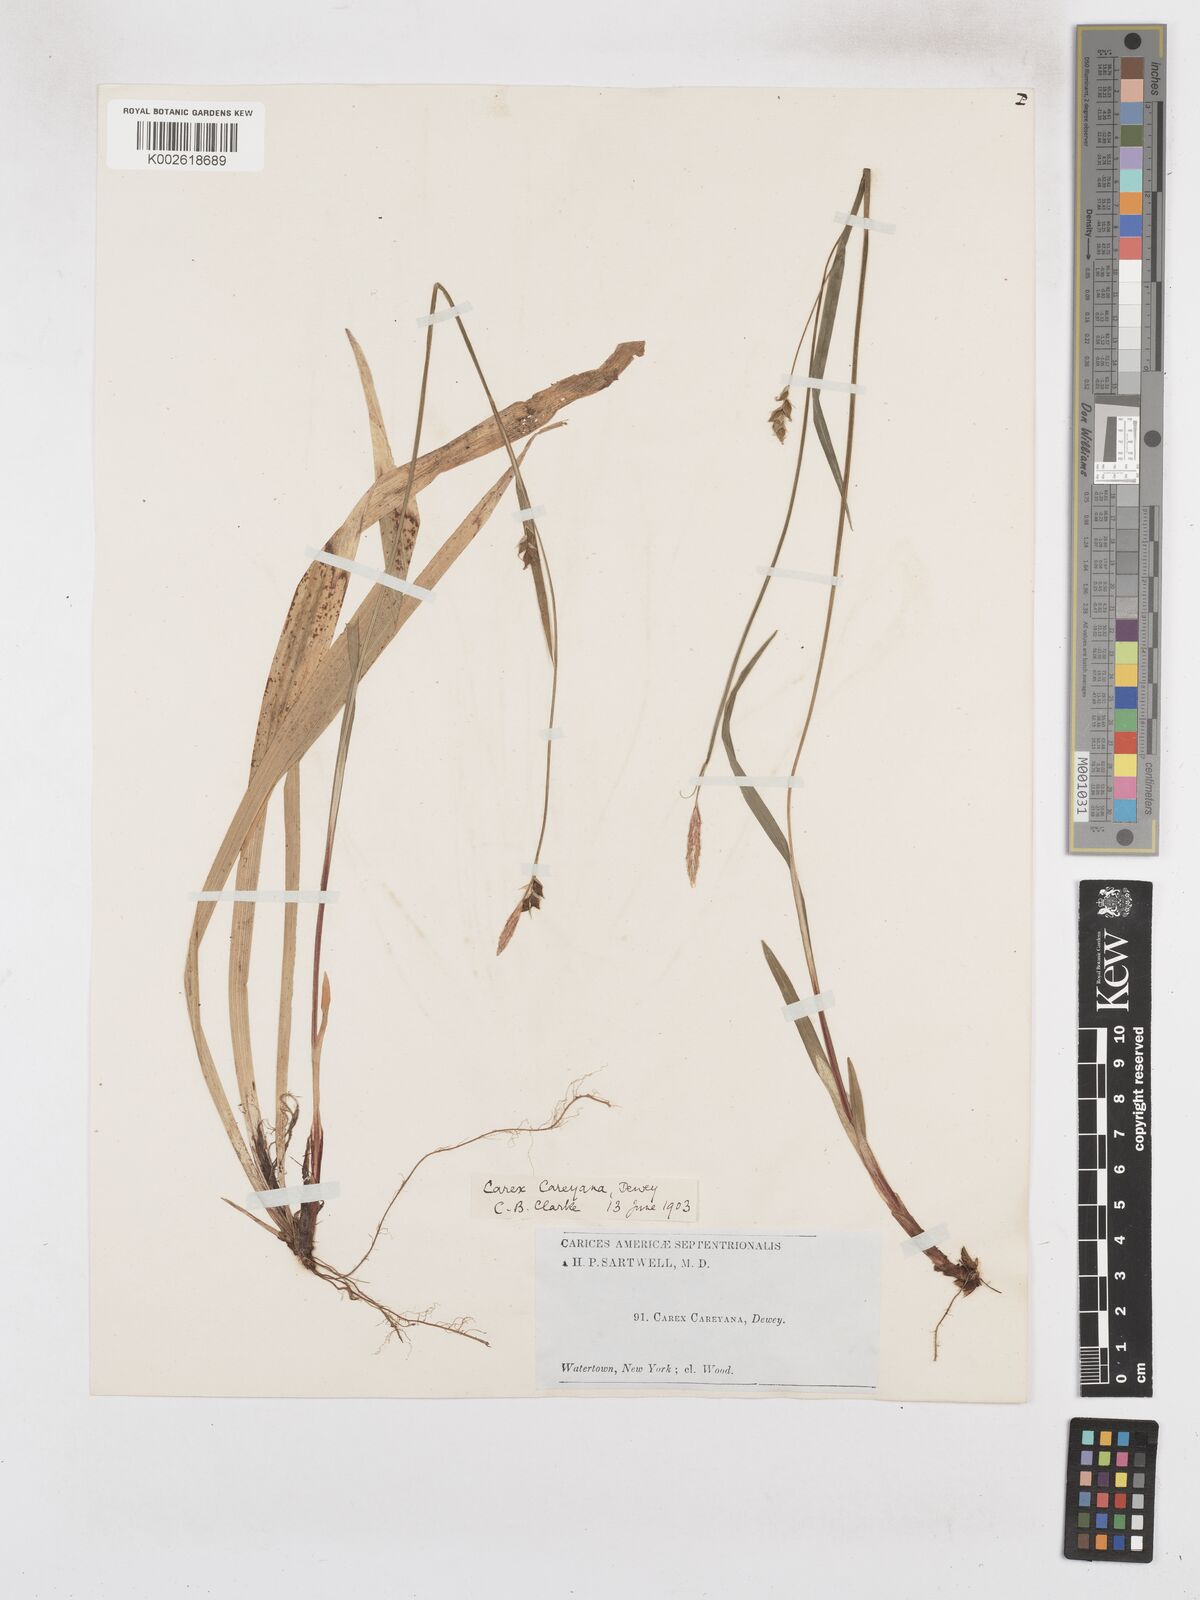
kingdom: Plantae
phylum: Tracheophyta
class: Liliopsida
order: Poales
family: Cyperaceae
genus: Carex
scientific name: Carex careyana
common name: Carey's sedge
